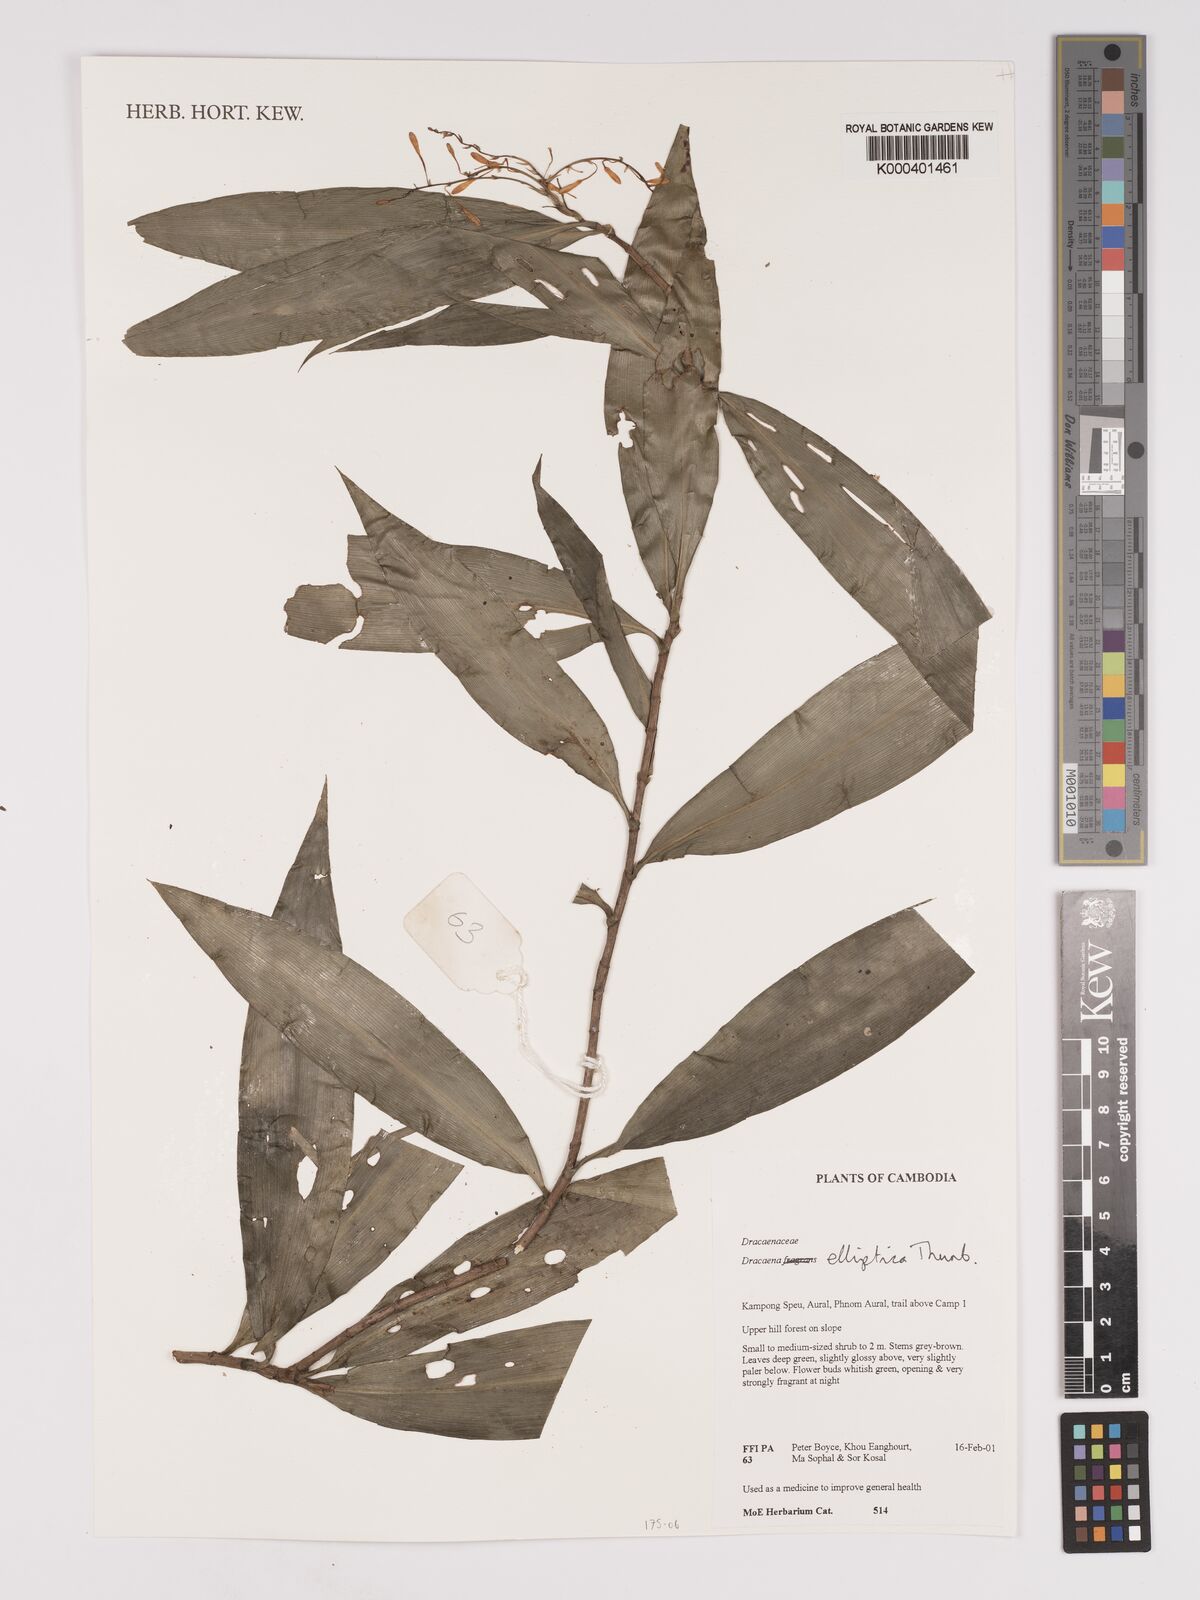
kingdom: Plantae
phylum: Tracheophyta
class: Liliopsida
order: Asparagales
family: Asparagaceae
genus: Dracaena
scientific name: Dracaena elliptica
